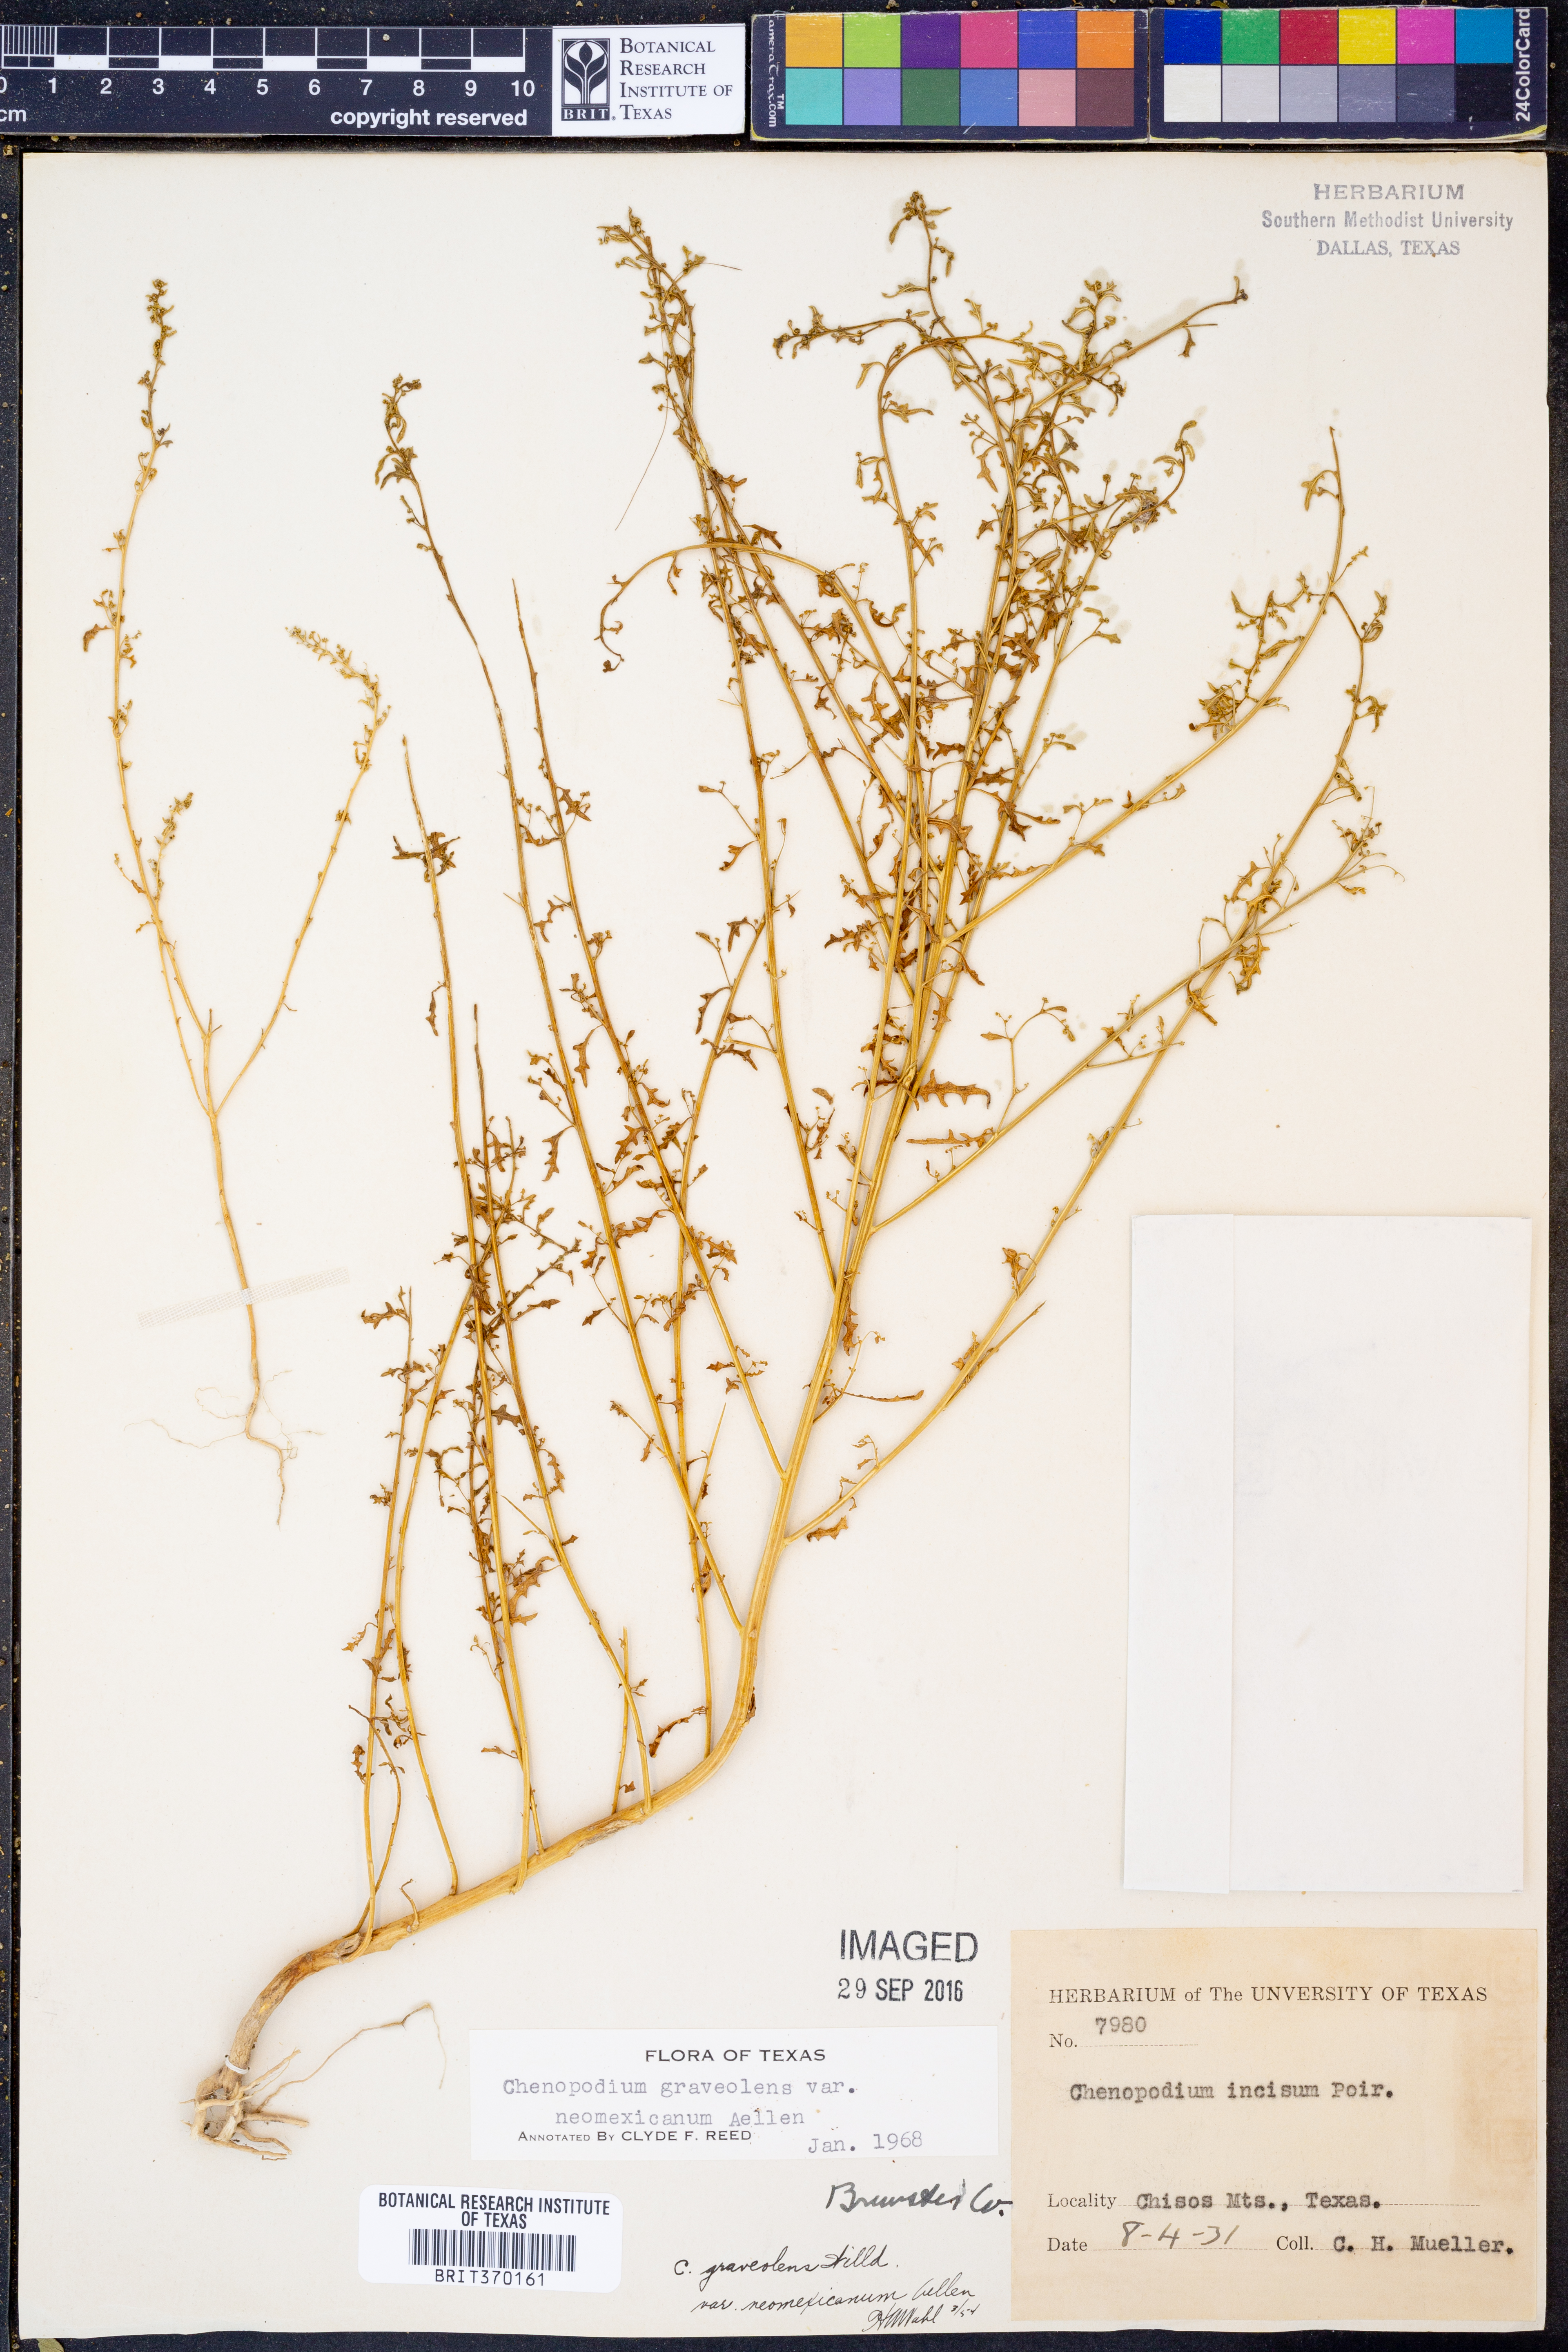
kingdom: Plantae
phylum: Tracheophyta
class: Magnoliopsida
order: Caryophyllales
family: Amaranthaceae
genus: Dysphania
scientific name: Dysphania graveolens
